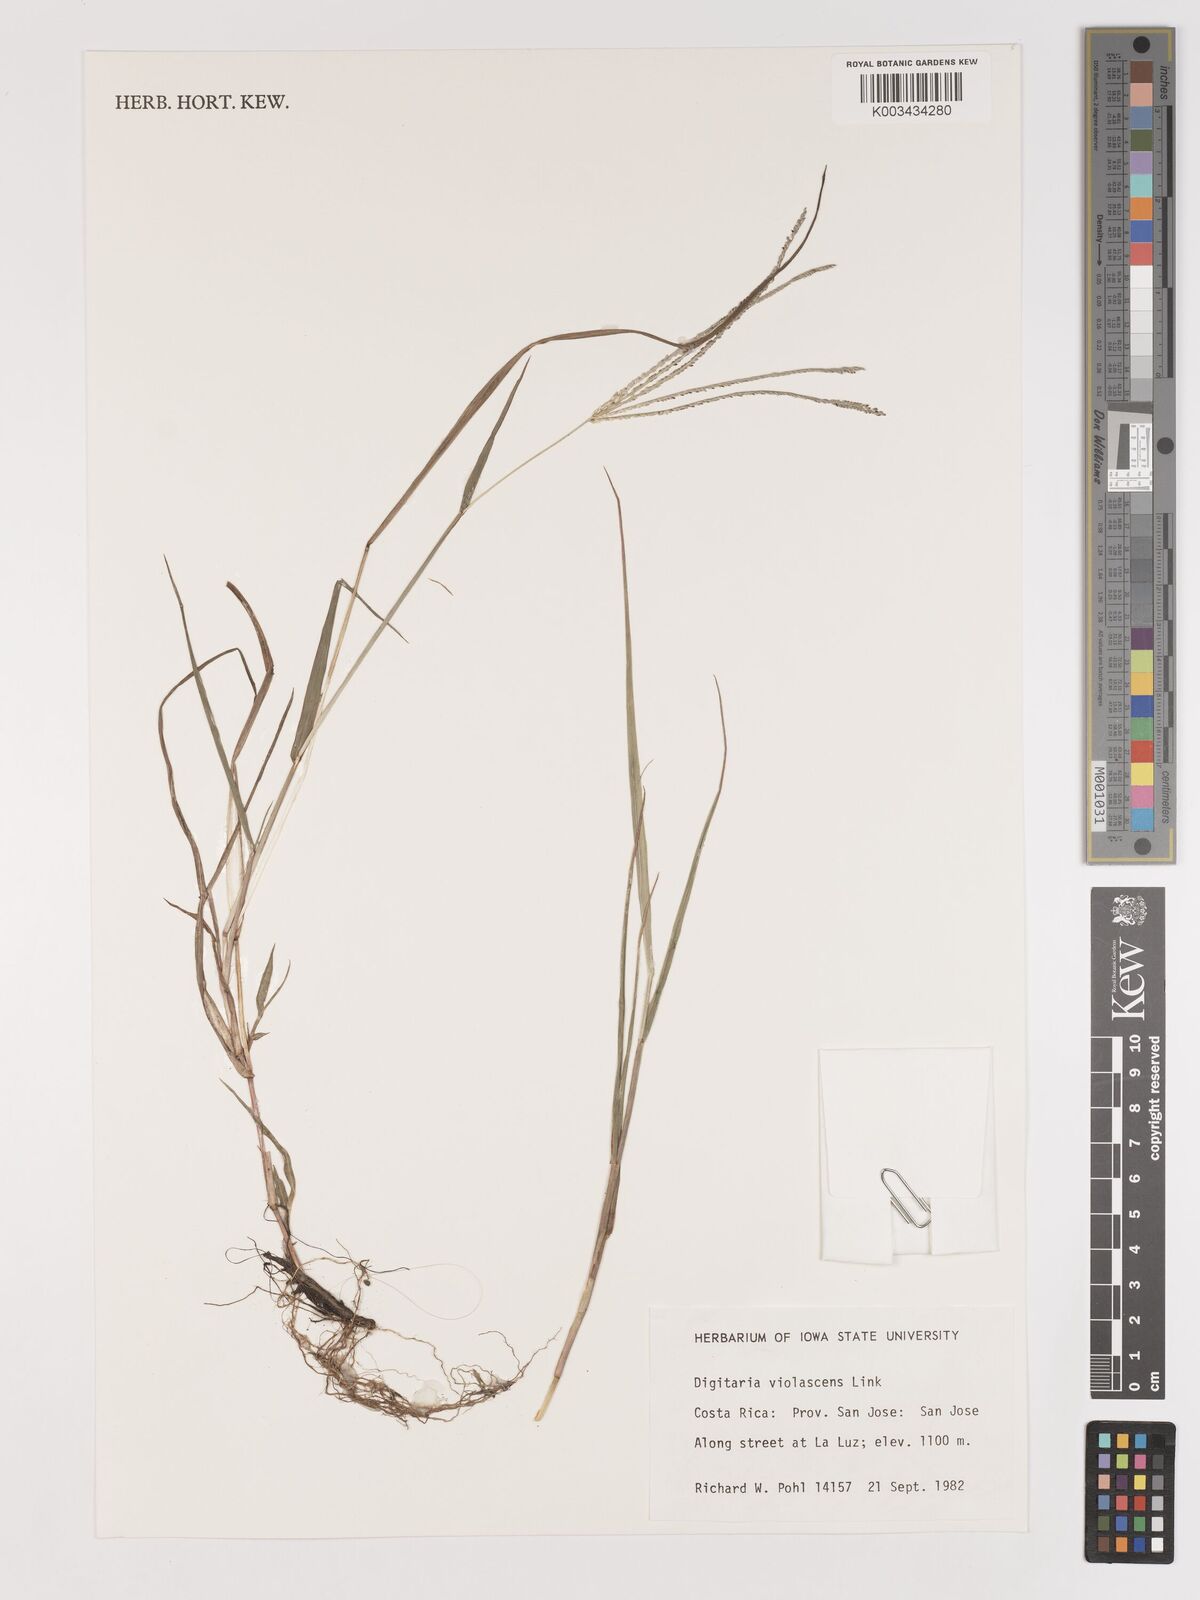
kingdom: Plantae
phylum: Tracheophyta
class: Liliopsida
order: Poales
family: Poaceae
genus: Digitaria
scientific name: Digitaria violascens
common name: Violet crabgrass
